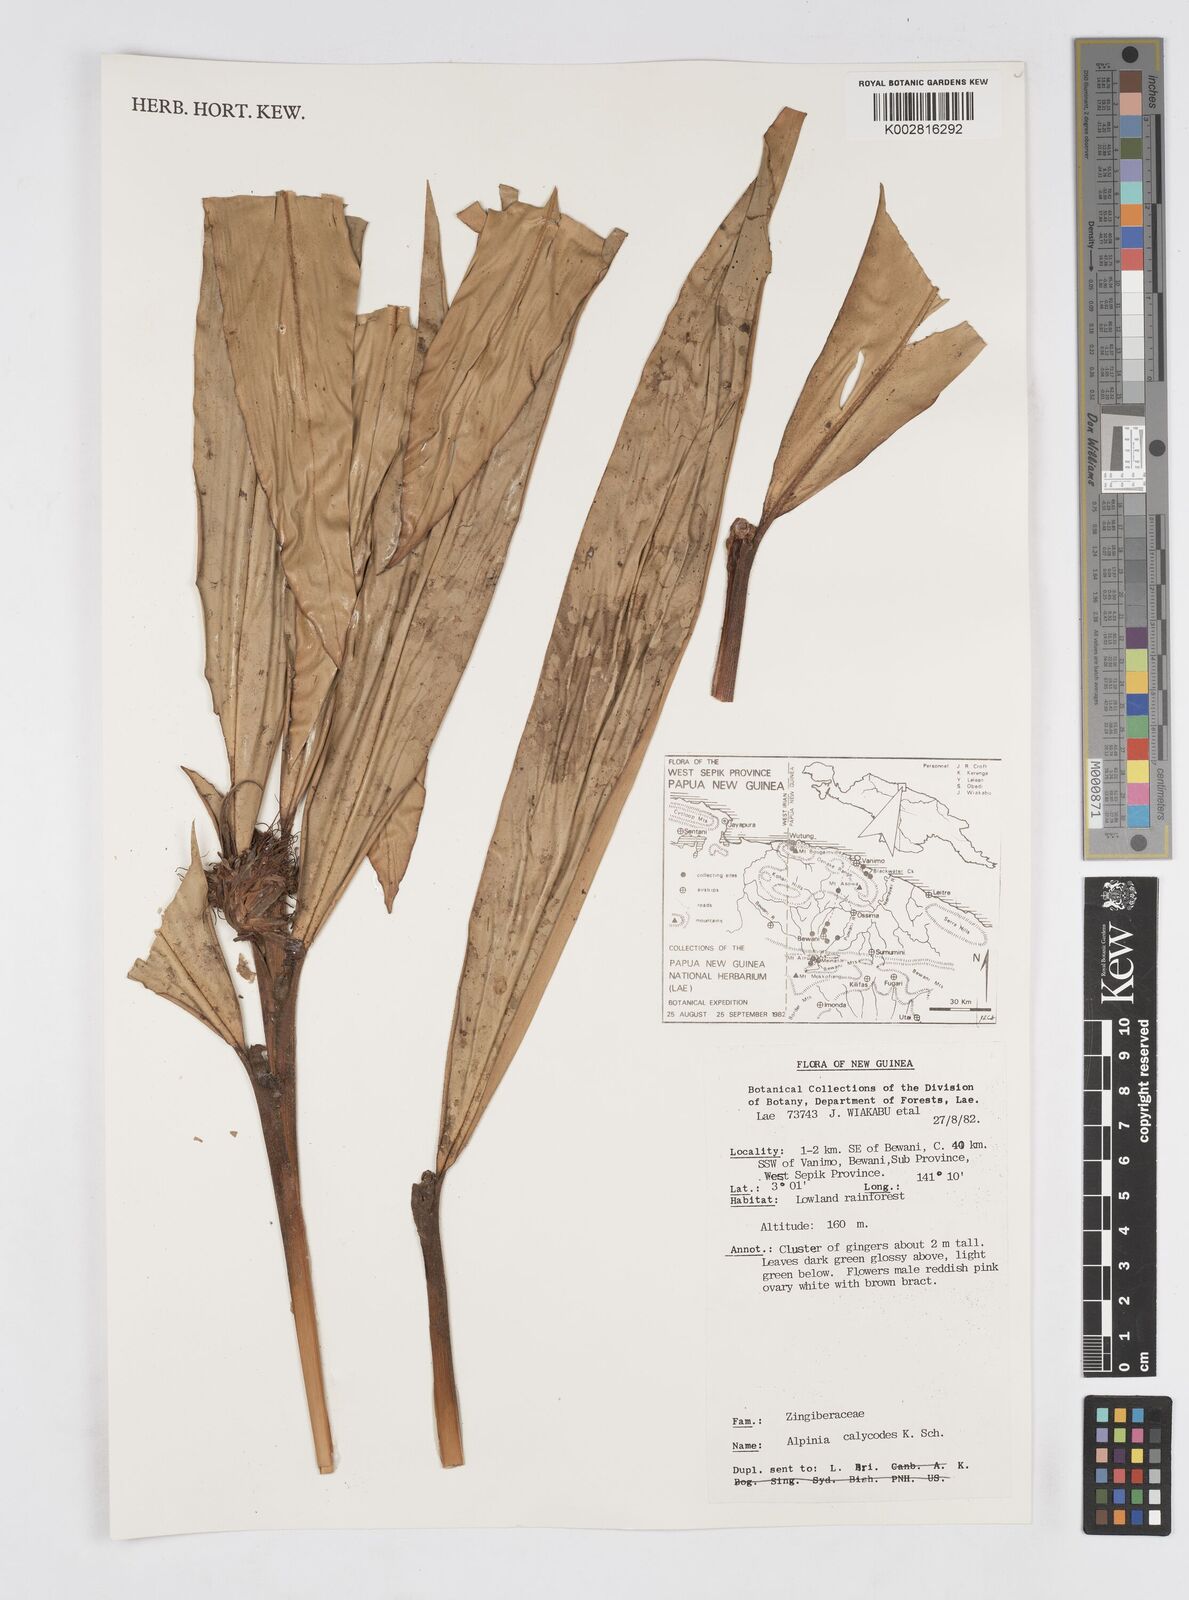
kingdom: Plantae
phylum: Tracheophyta
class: Liliopsida
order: Zingiberales
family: Zingiberaceae
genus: Alpinia
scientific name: Alpinia calycodes
